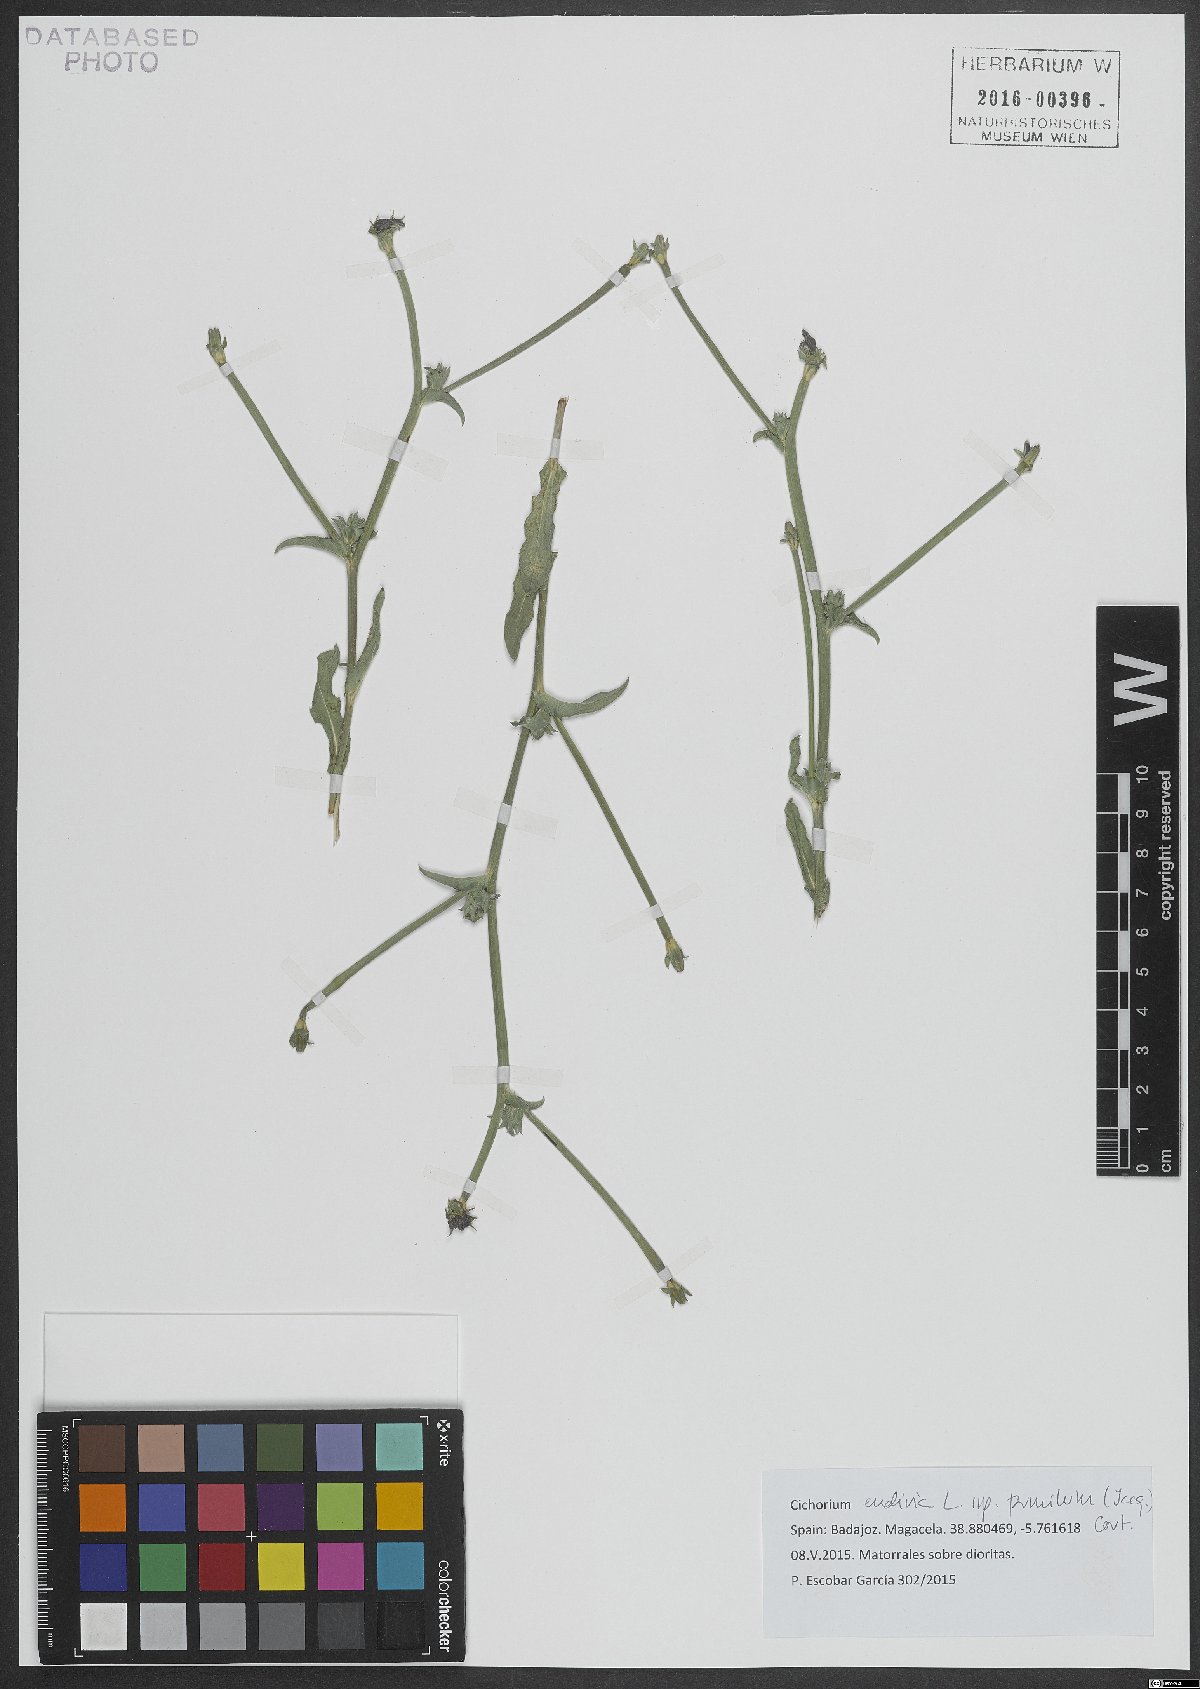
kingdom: Plantae
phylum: Tracheophyta
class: Magnoliopsida
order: Asterales
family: Asteraceae
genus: Cichorium
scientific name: Cichorium pumilum
